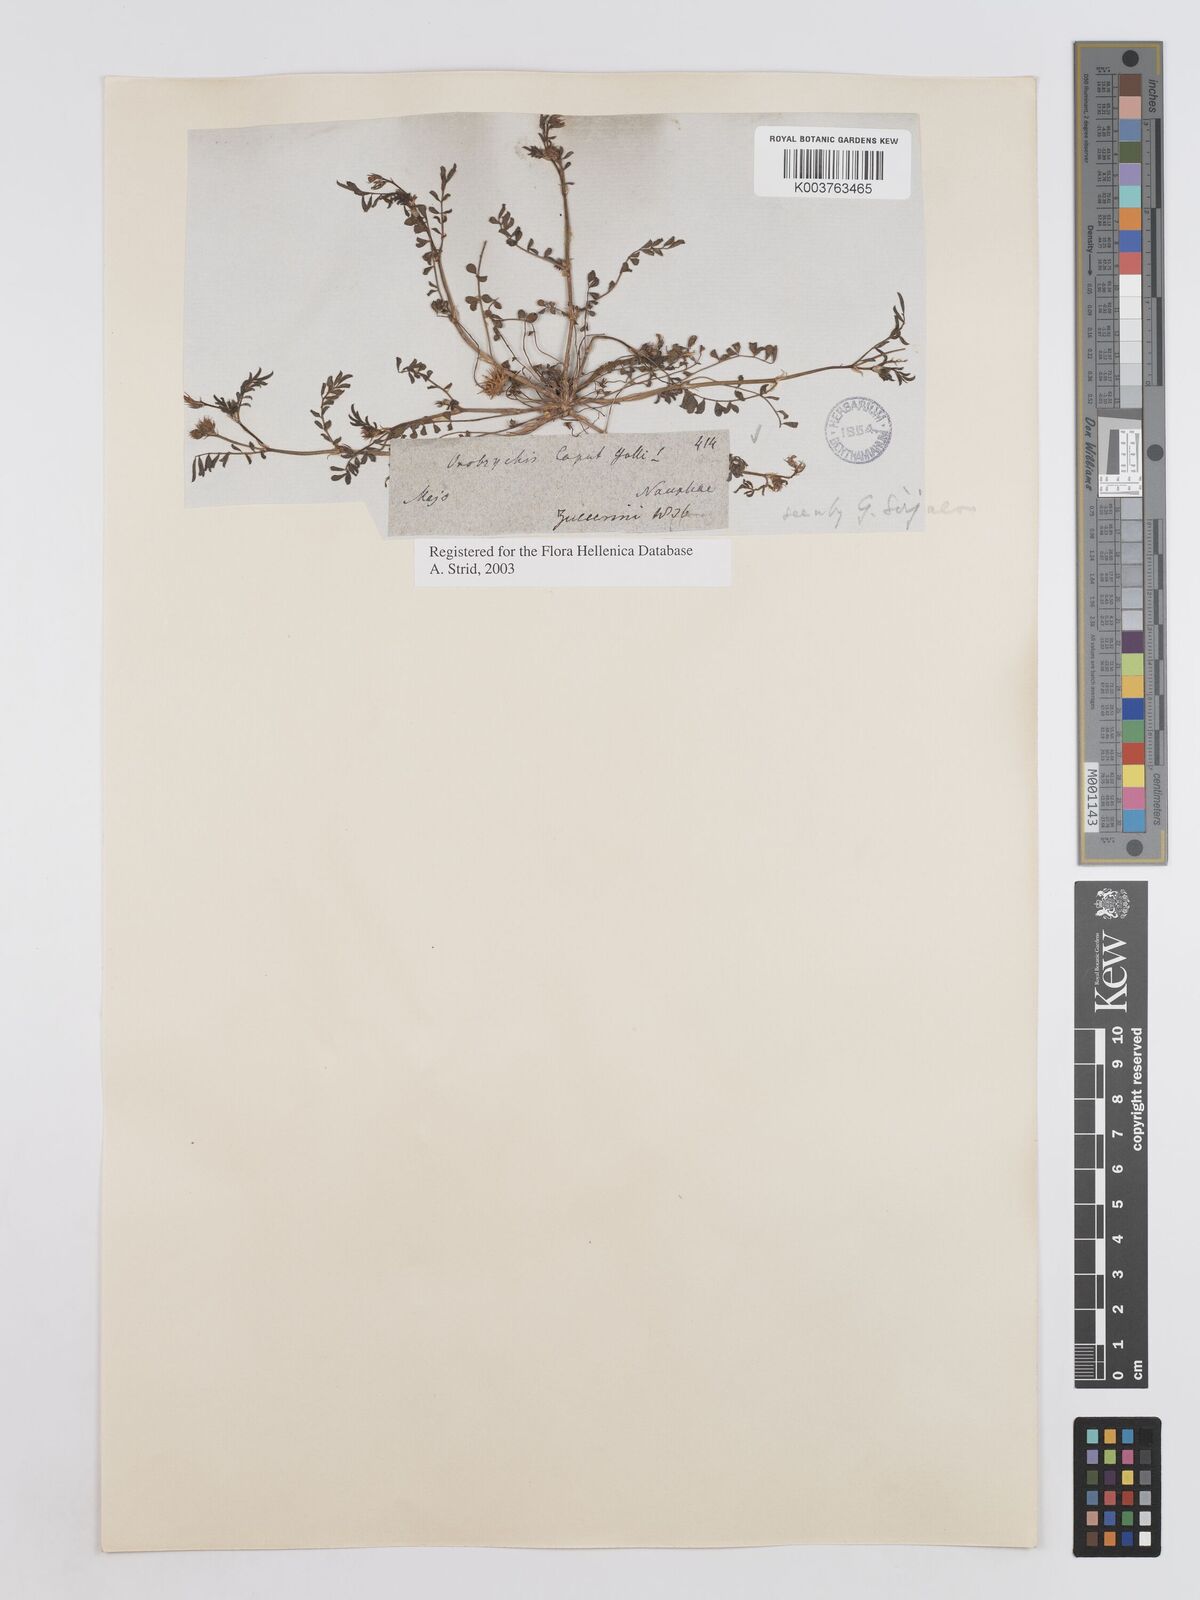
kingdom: Plantae
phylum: Tracheophyta
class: Magnoliopsida
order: Fabales
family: Fabaceae
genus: Onobrychis
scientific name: Onobrychis caput-galli
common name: Cockscomb sainfoin
